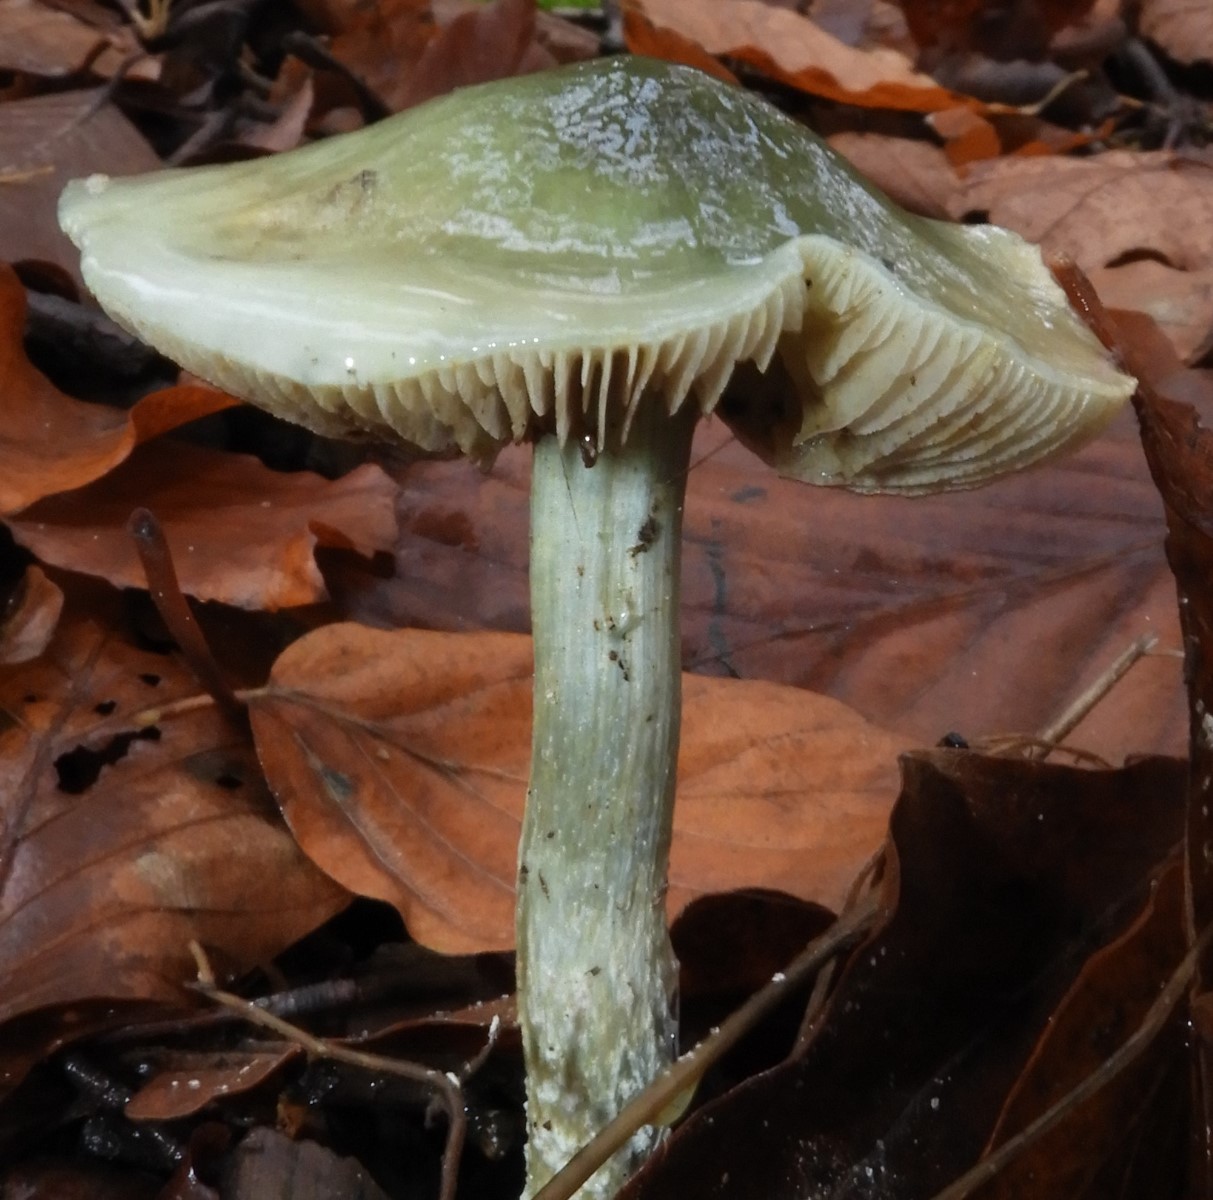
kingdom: Fungi
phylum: Basidiomycota
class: Agaricomycetes
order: Agaricales
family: Strophariaceae
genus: Stropharia
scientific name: Stropharia cyanea
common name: blågrøn bredblad
